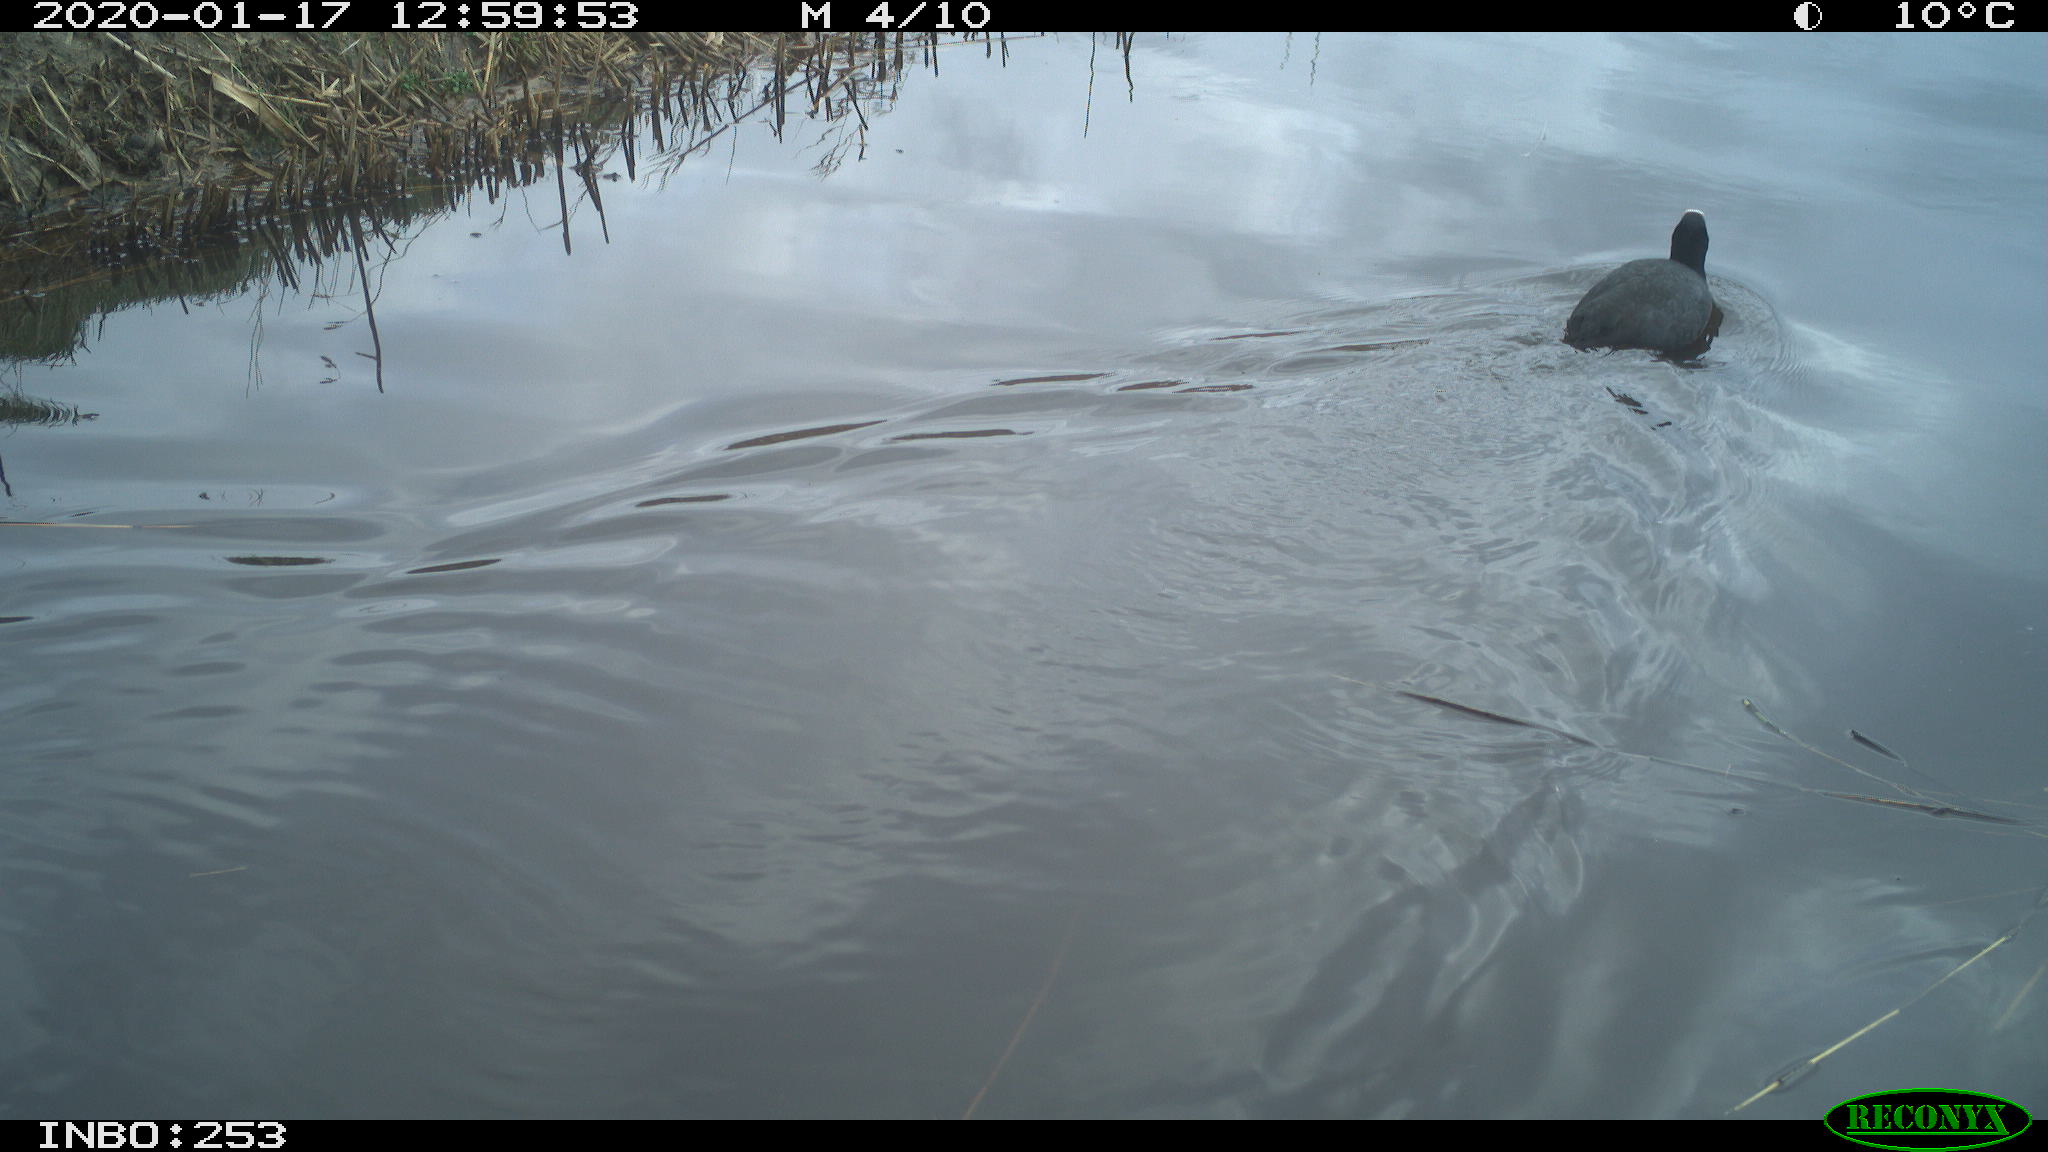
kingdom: Animalia
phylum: Chordata
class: Aves
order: Gruiformes
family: Rallidae
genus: Fulica
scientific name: Fulica atra
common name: Eurasian coot
